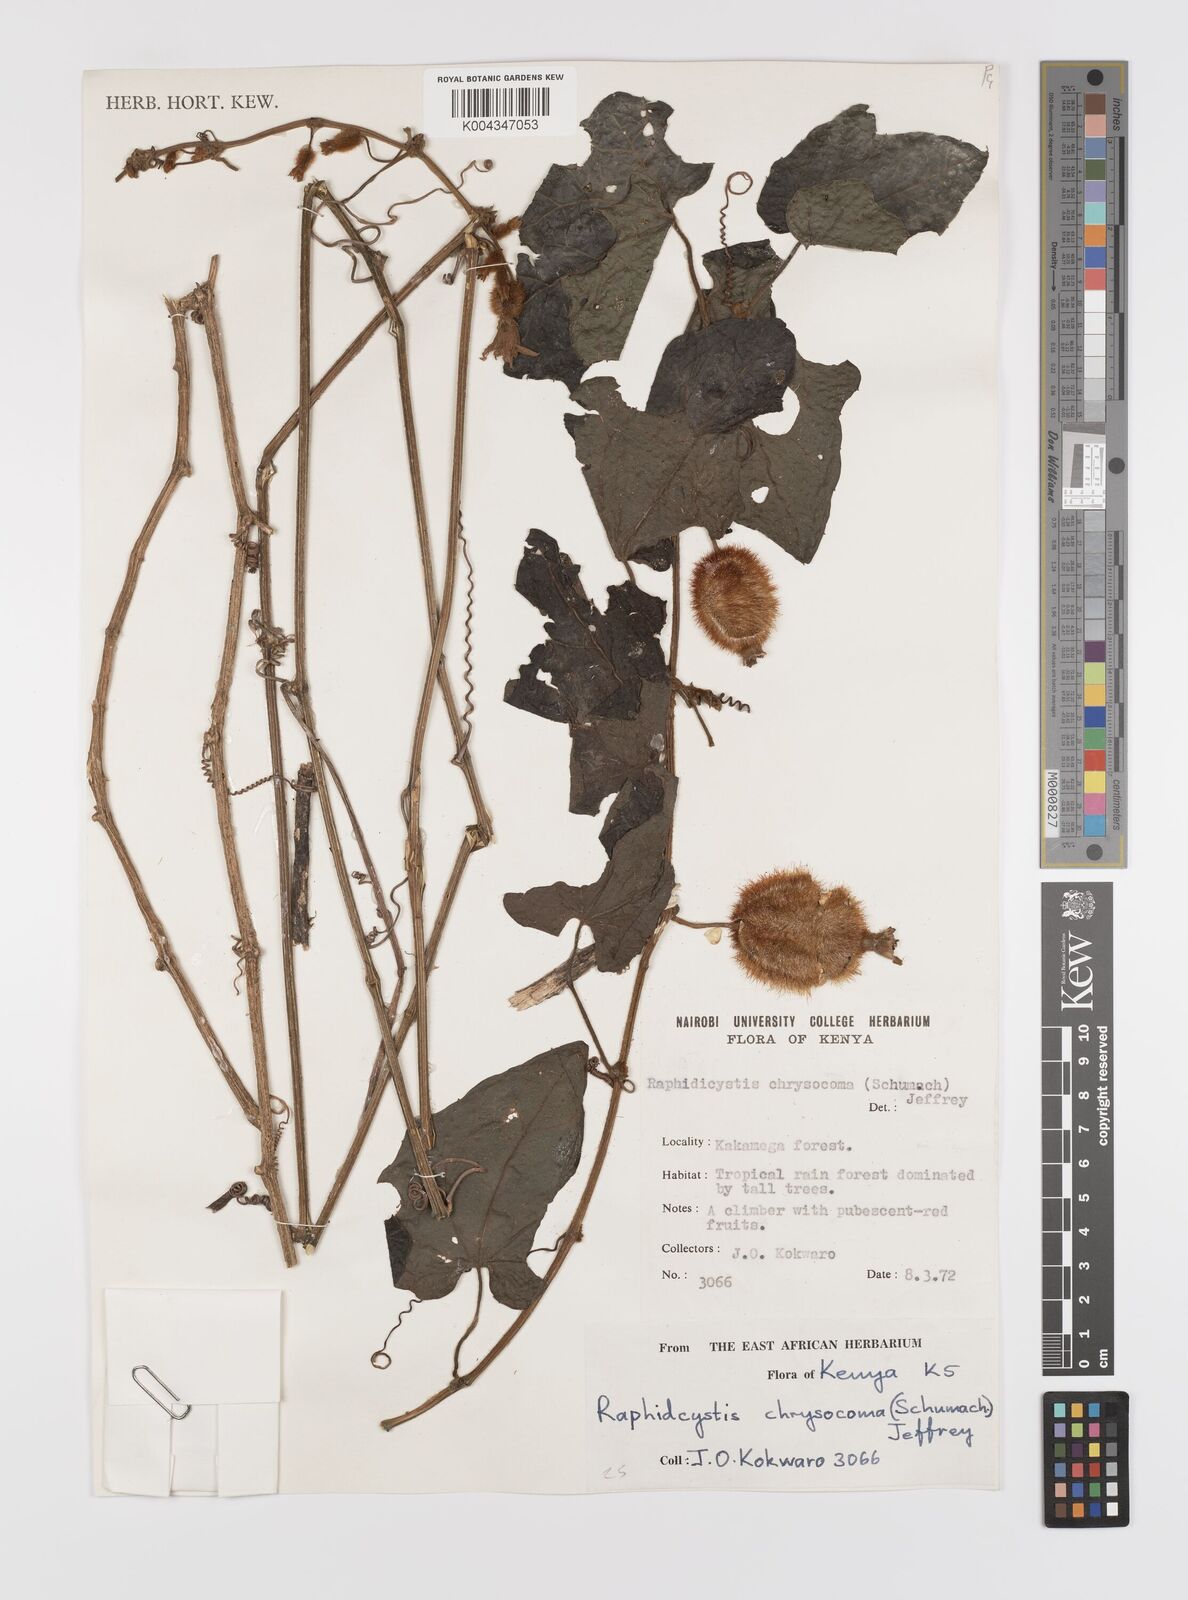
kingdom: Plantae
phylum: Tracheophyta
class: Magnoliopsida
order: Cucurbitales
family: Cucurbitaceae
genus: Raphidiocystis
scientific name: Raphidiocystis chrysocoma
